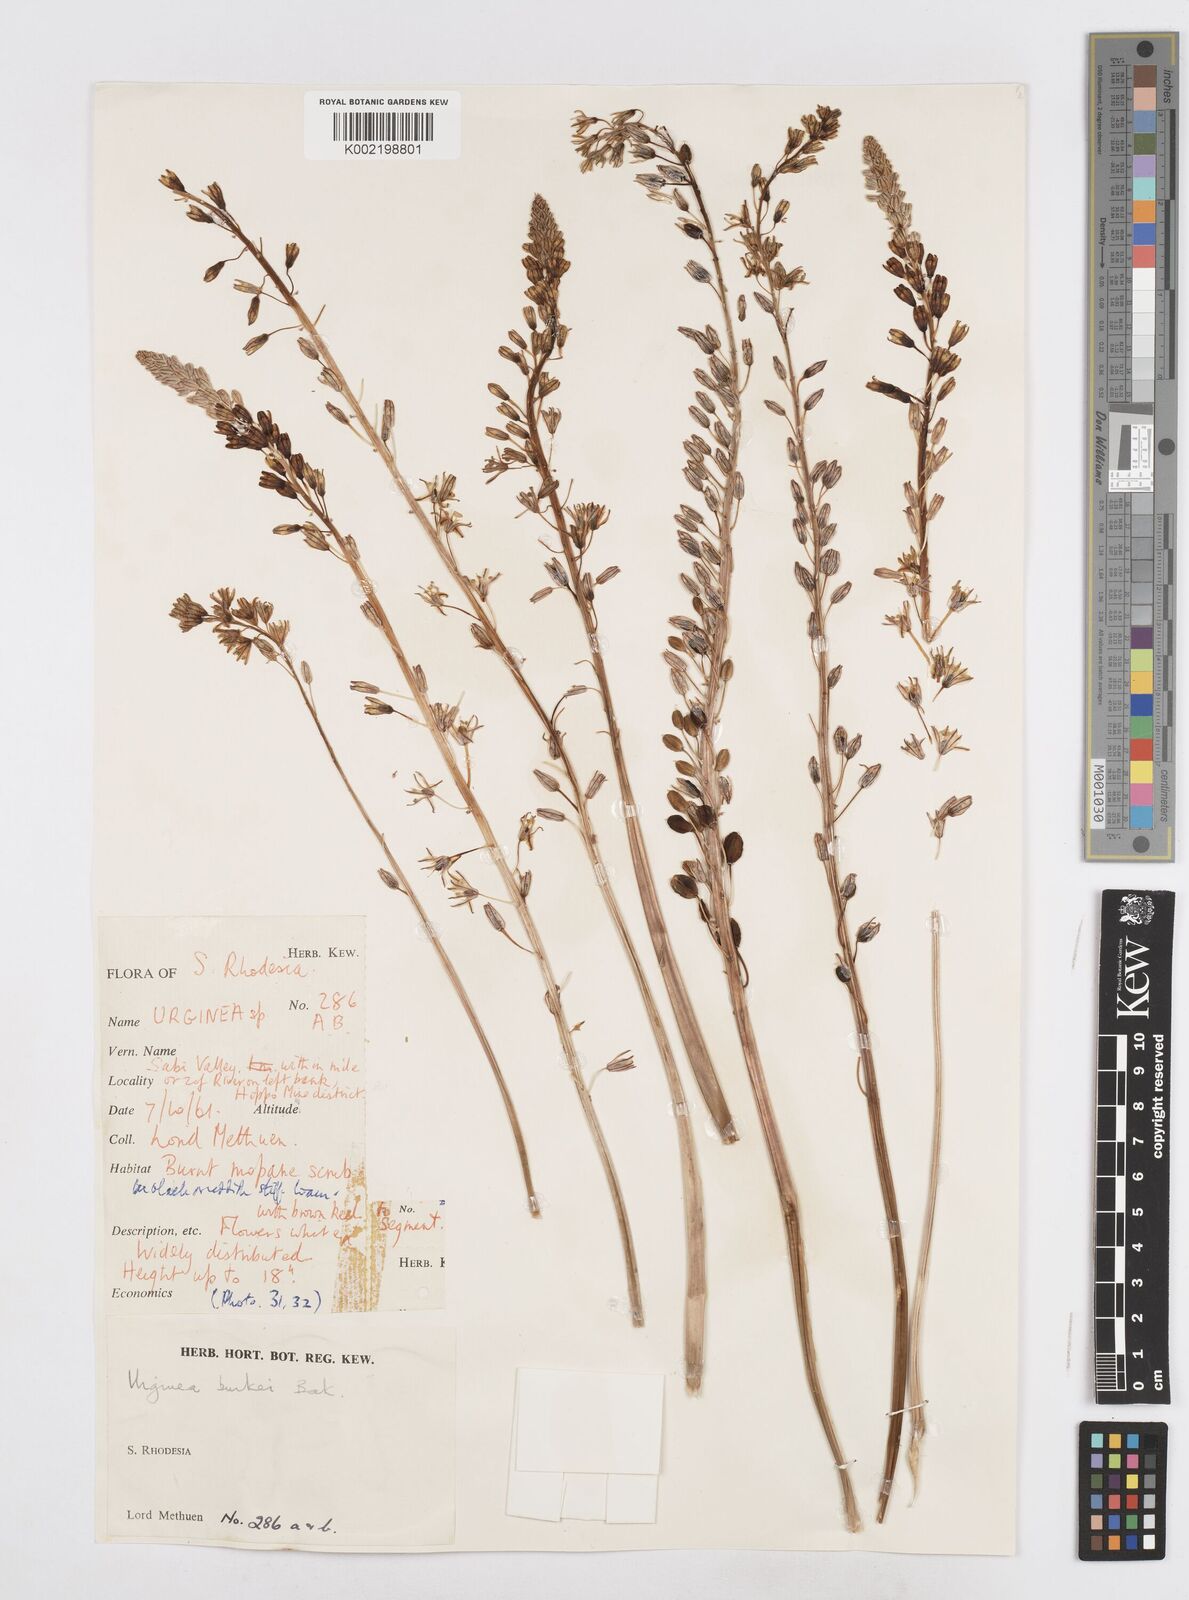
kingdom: Plantae
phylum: Tracheophyta
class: Liliopsida
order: Asparagales
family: Asparagaceae
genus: Drimia
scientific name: Drimia sanguinea
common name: Transvaal slangkop
